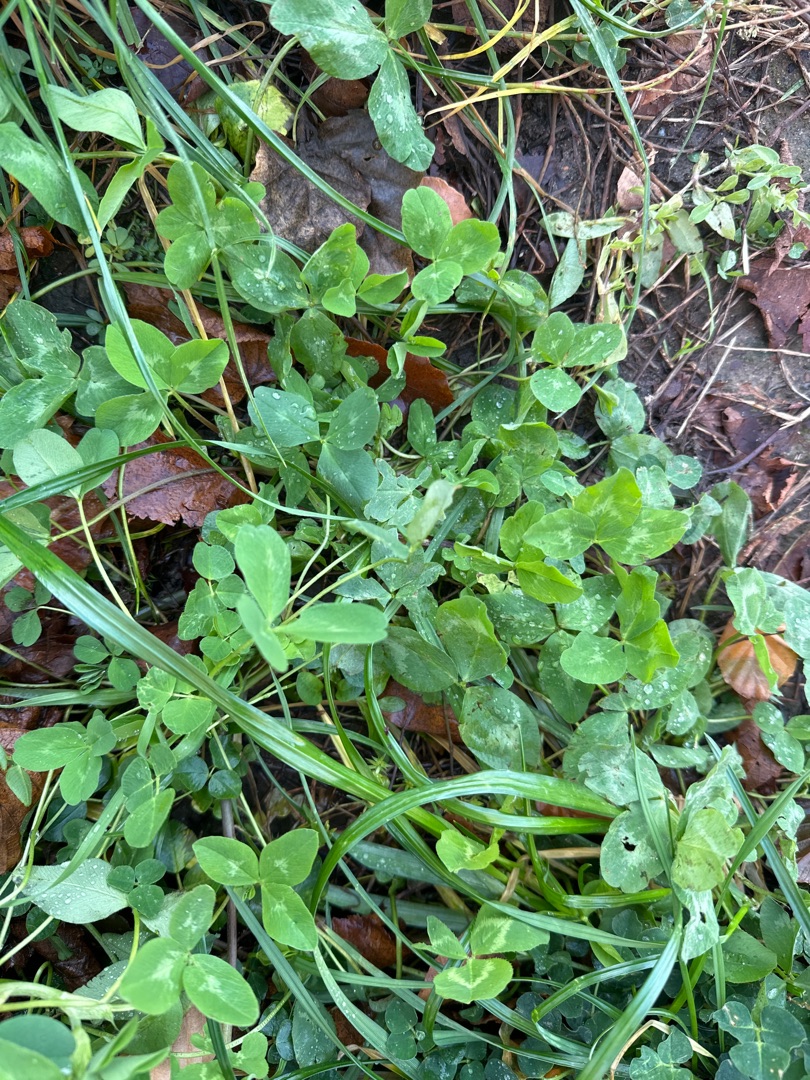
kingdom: Plantae
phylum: Tracheophyta
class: Magnoliopsida
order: Fabales
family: Fabaceae
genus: Trifolium
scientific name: Trifolium repens
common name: Hvid-kløver
